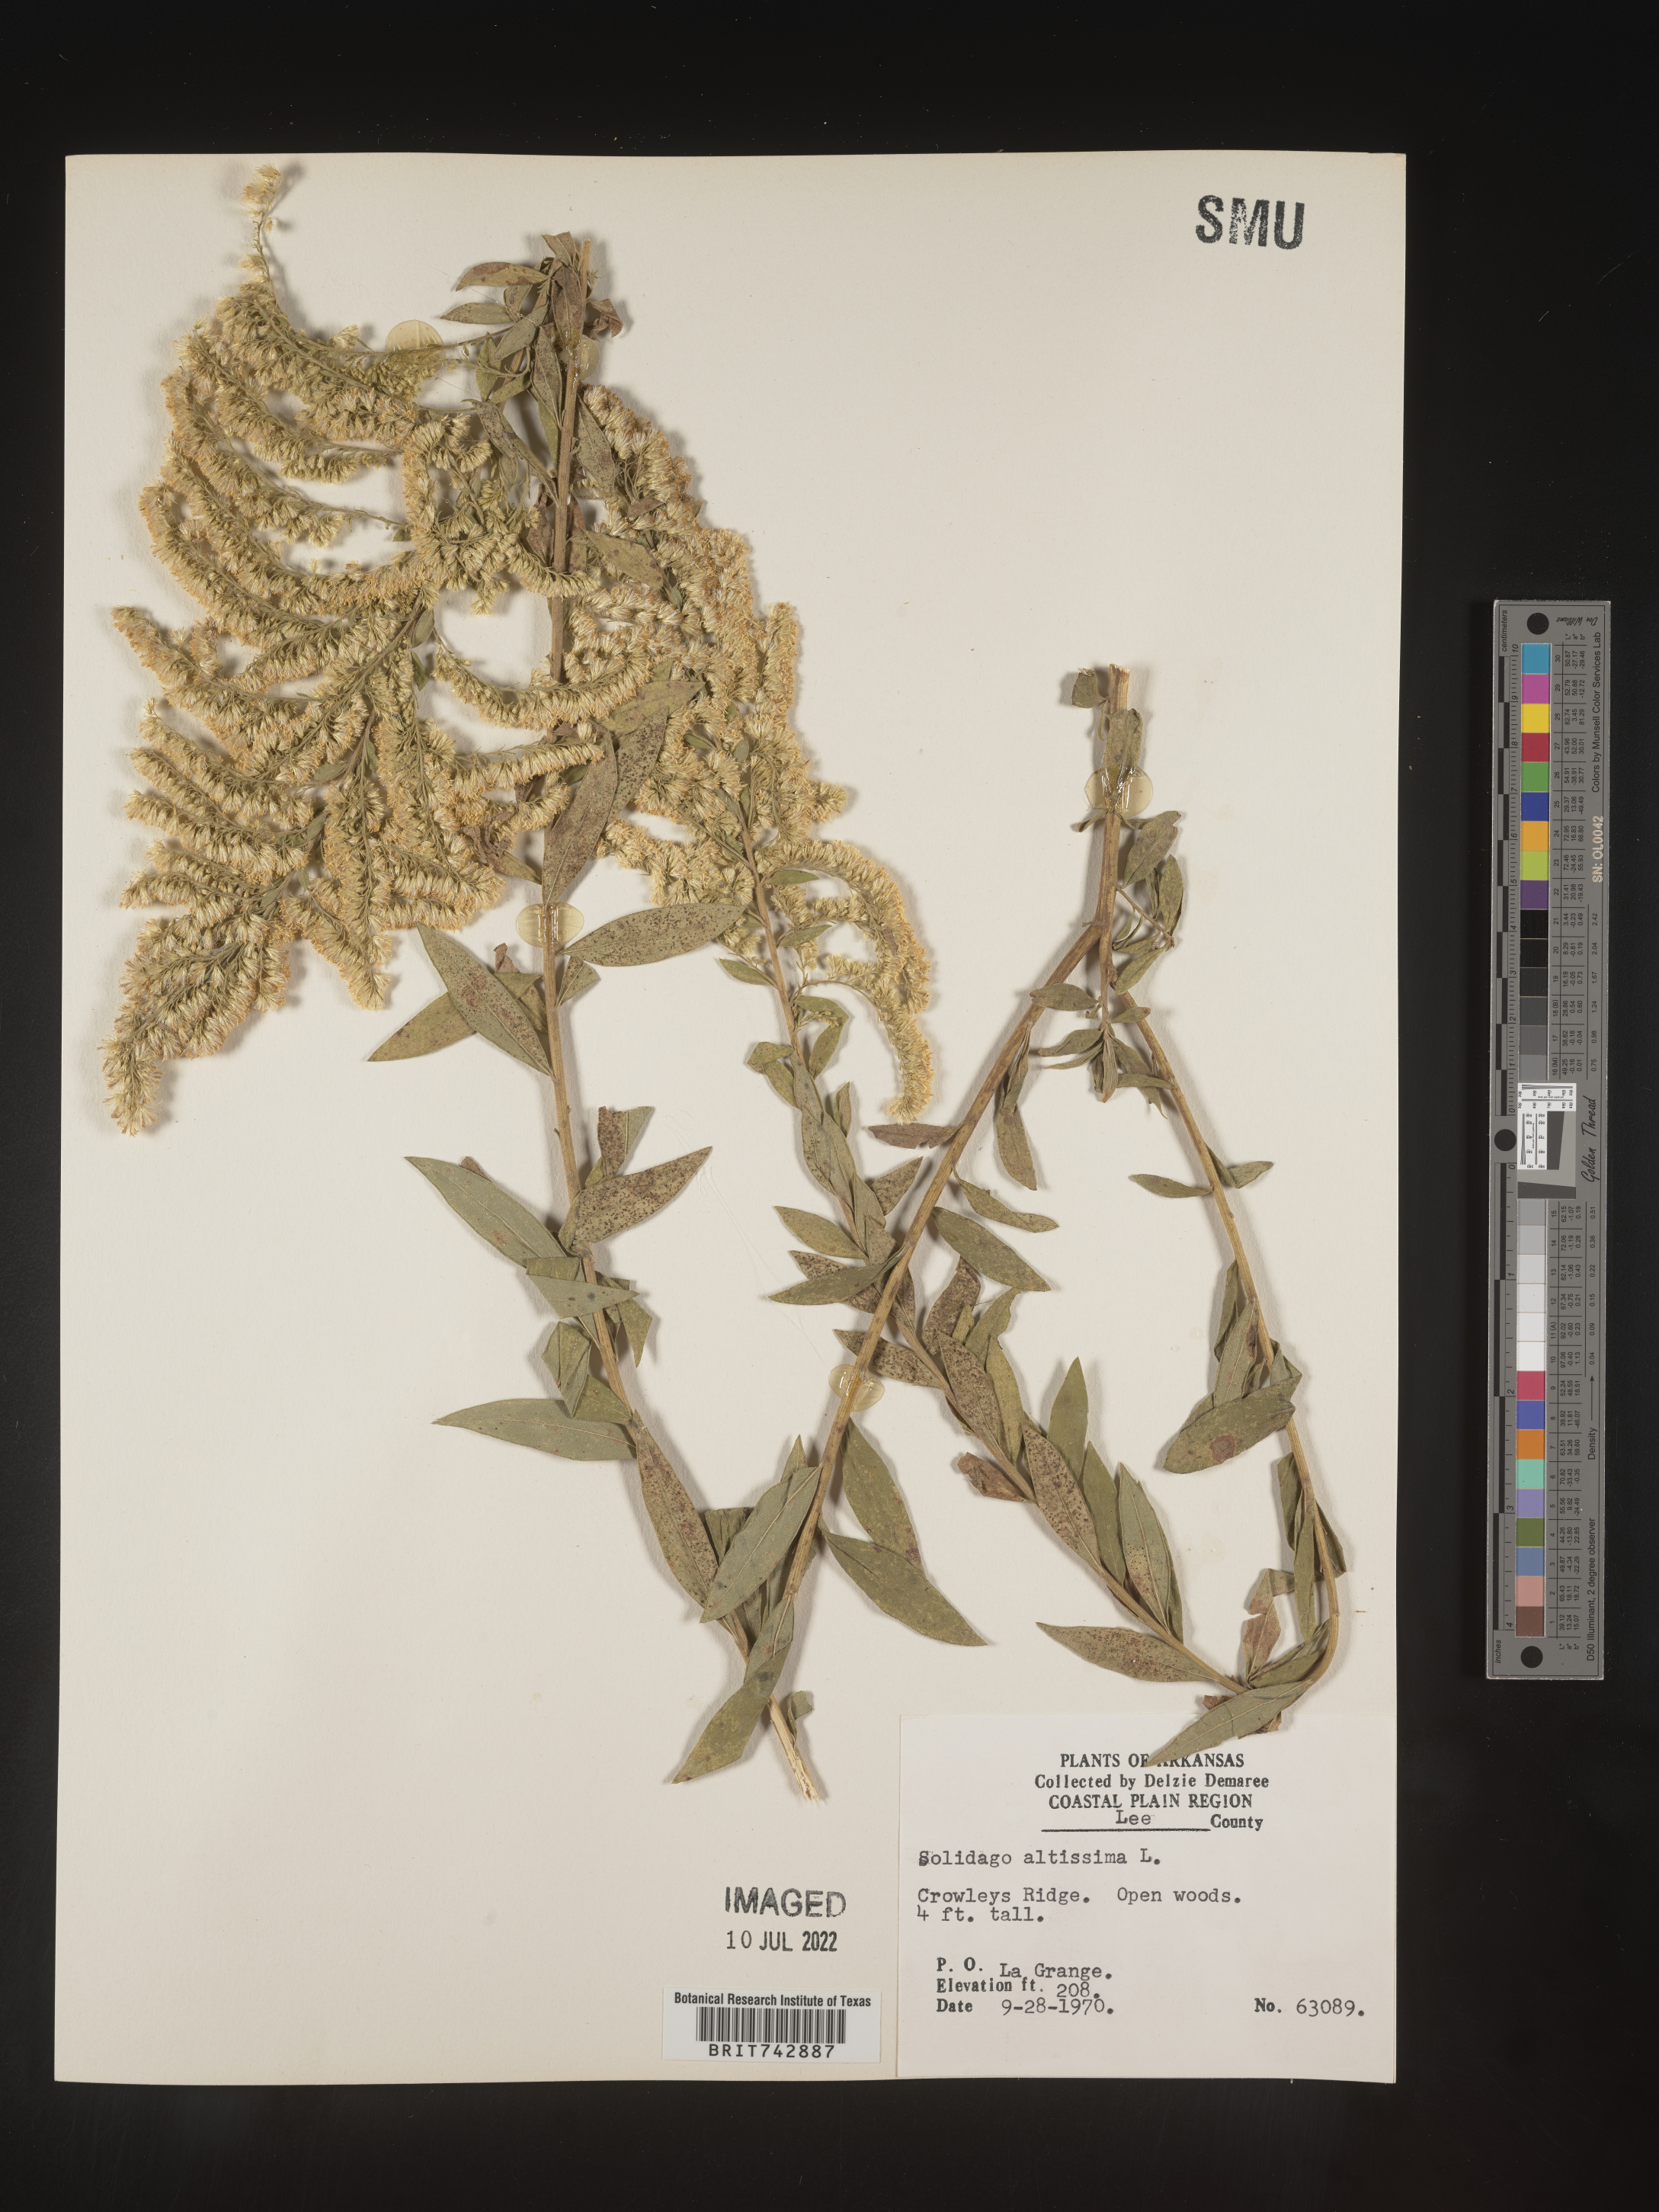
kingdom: Plantae
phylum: Tracheophyta
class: Magnoliopsida
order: Asterales
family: Asteraceae
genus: Solidago
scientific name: Solidago altissima
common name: Late goldenrod
